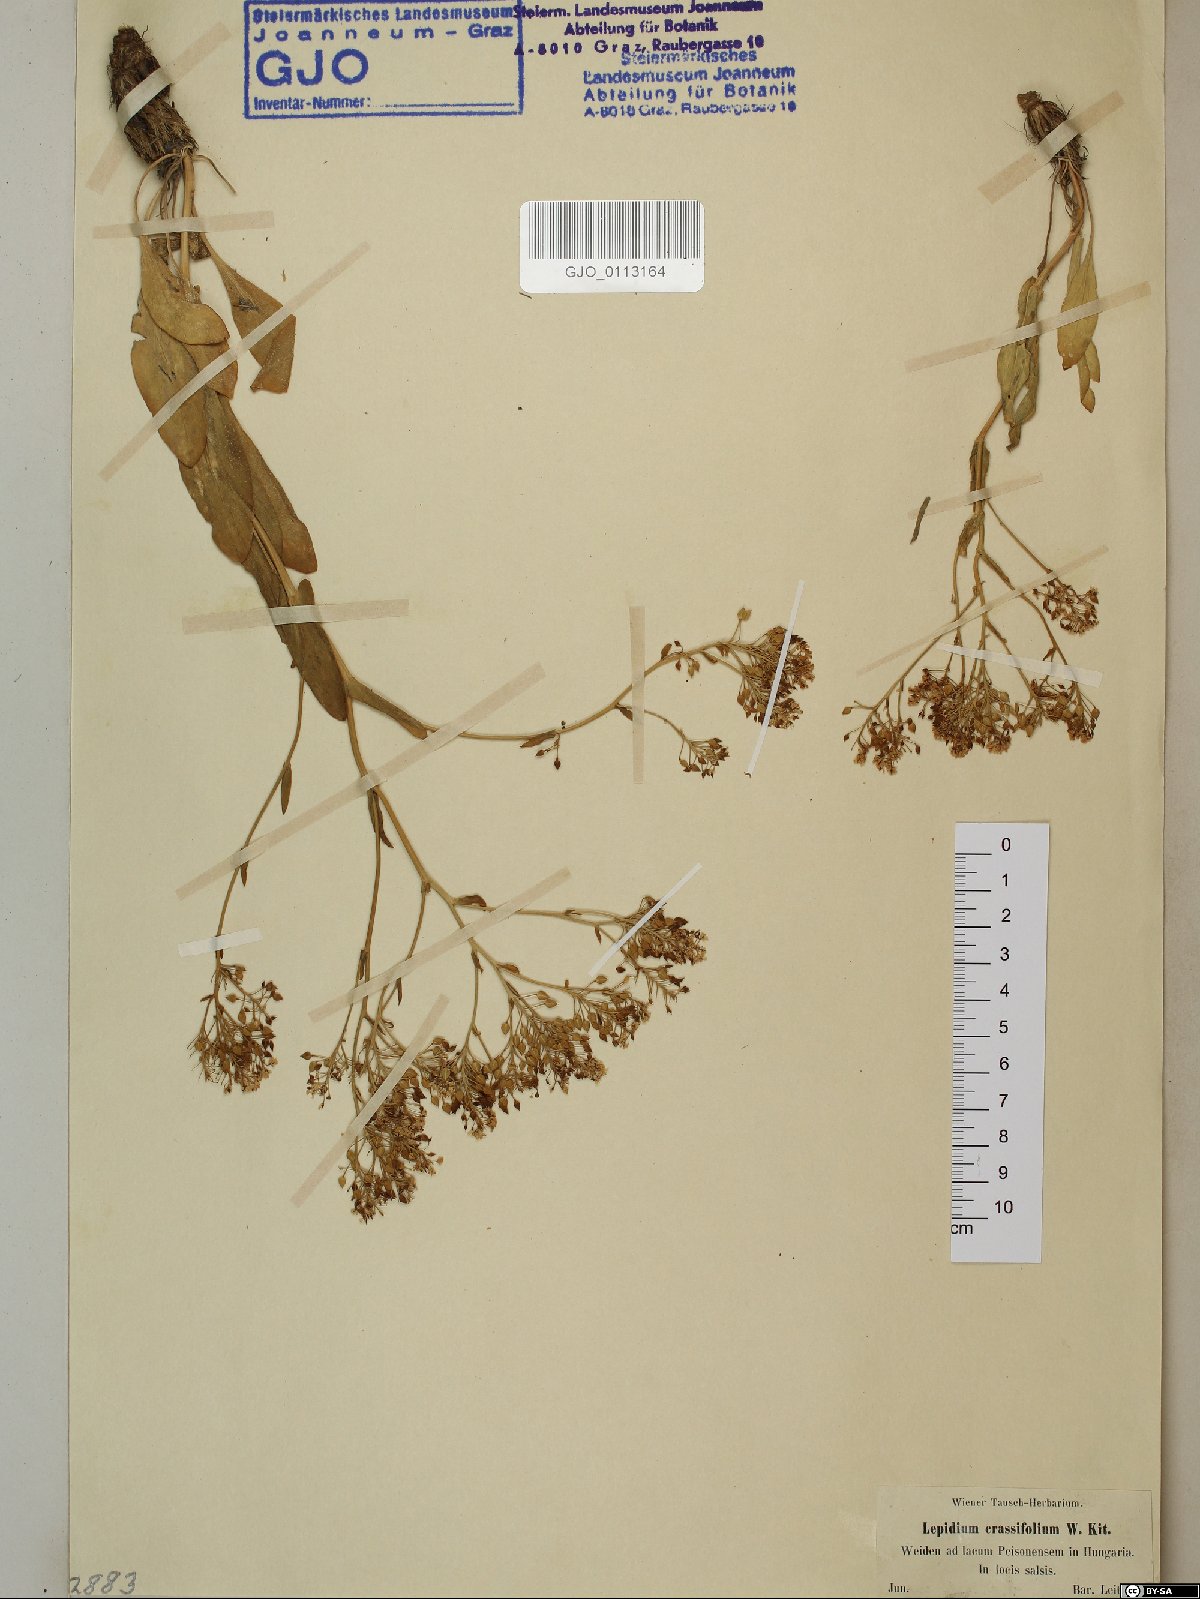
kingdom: Plantae
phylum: Tracheophyta
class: Magnoliopsida
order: Brassicales
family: Brassicaceae
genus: Lepidium
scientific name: Lepidium cartilagineum
